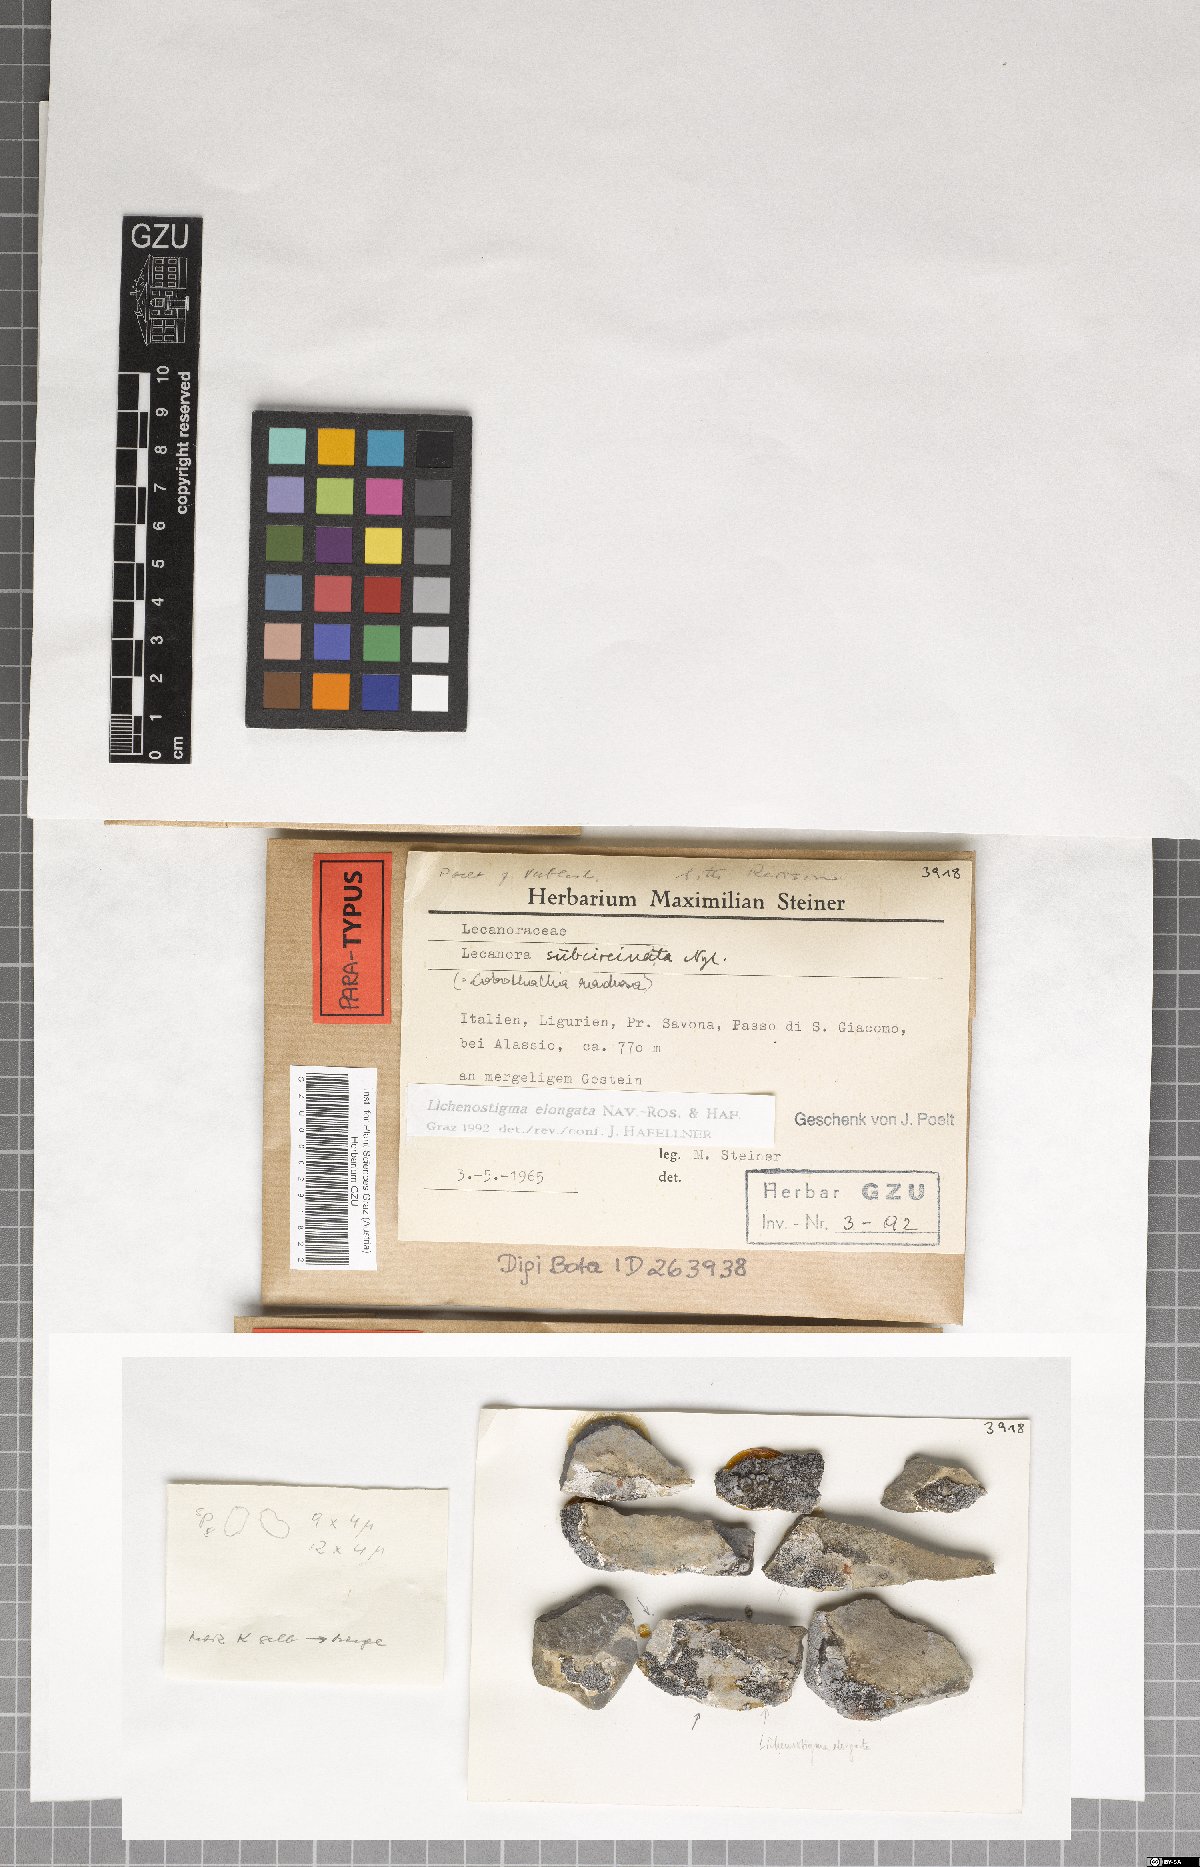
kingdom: Fungi
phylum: Ascomycota
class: Arthoniomycetes
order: Lichenostigmatales
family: Phaeococcomycetaceae
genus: Lichenostigma
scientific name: Lichenostigma elongatum
